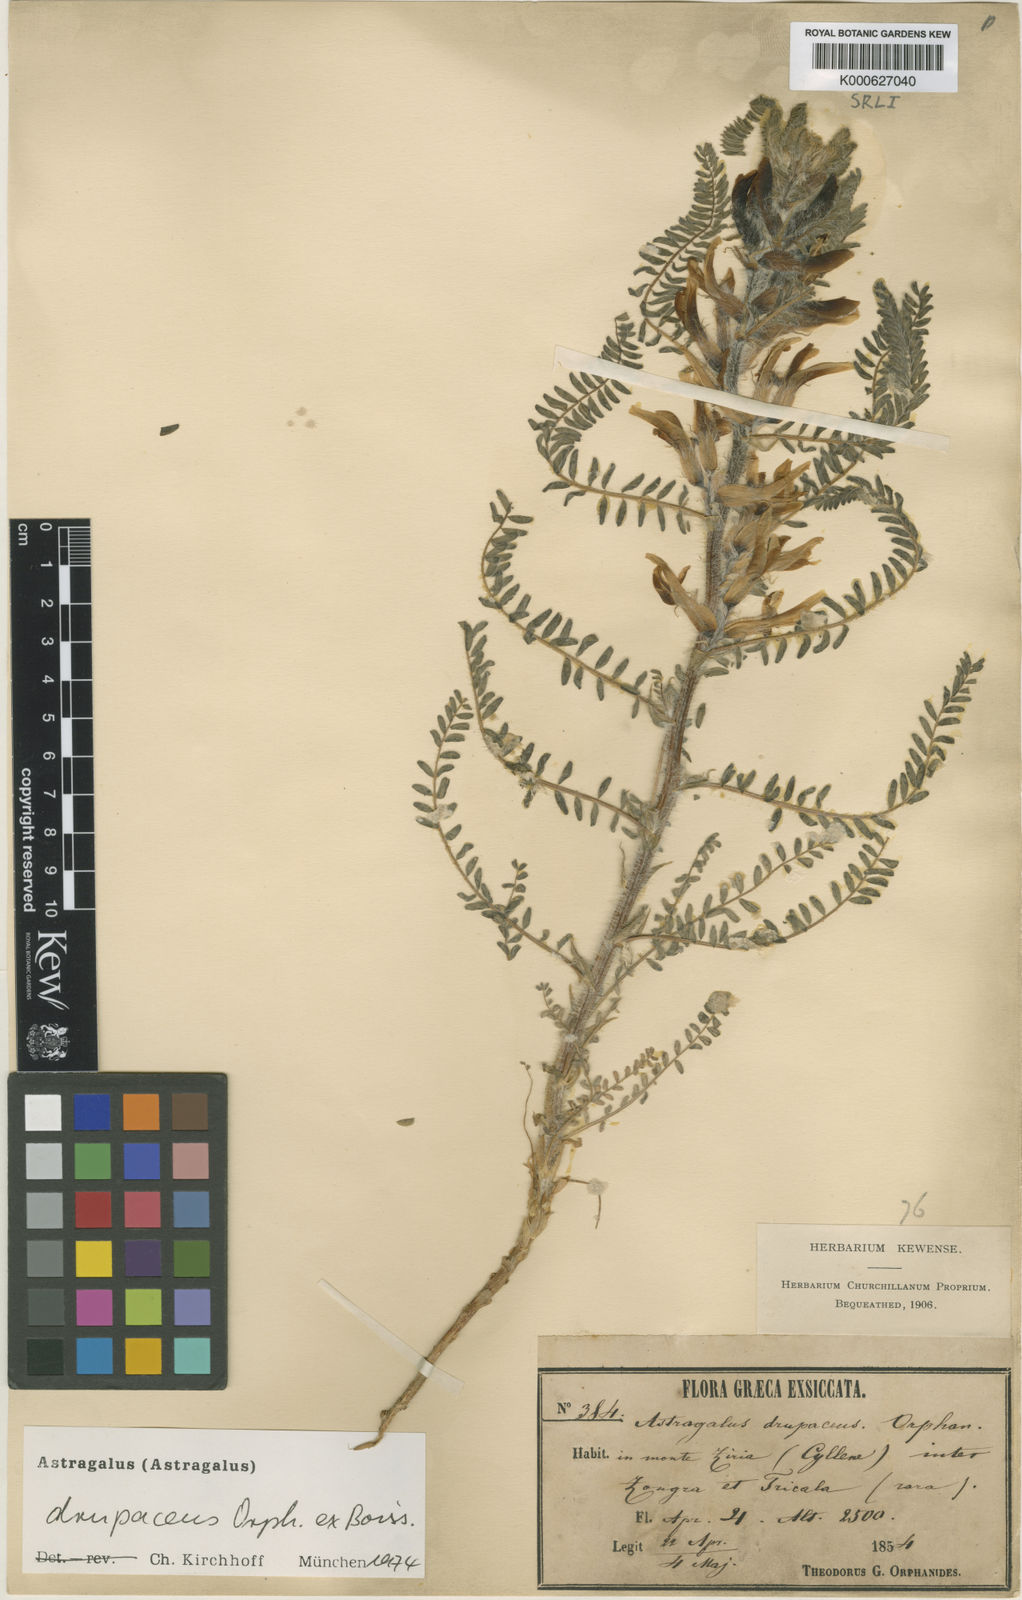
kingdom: Plantae
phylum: Tracheophyta
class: Magnoliopsida
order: Fabales
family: Fabaceae
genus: Astragalus
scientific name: Astragalus
